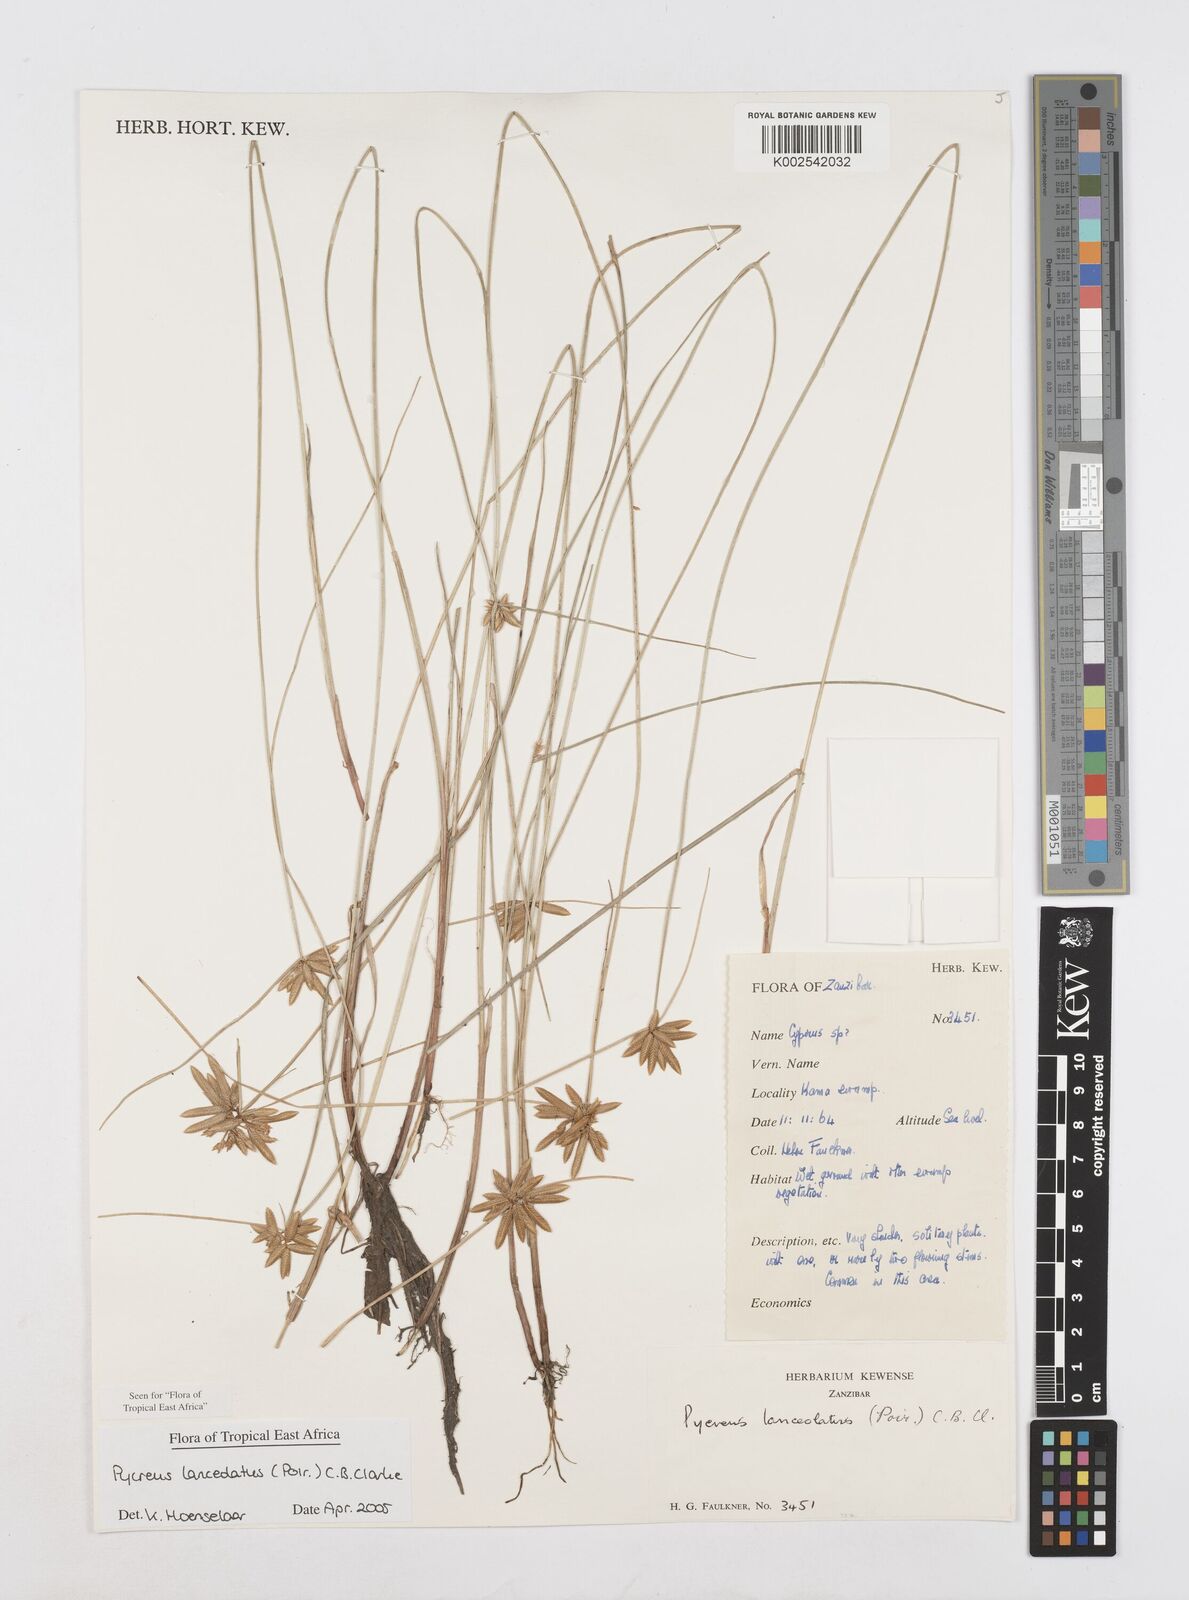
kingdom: Plantae
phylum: Tracheophyta
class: Liliopsida
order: Poales
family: Cyperaceae
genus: Cyperus
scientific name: Cyperus lanceolatus
